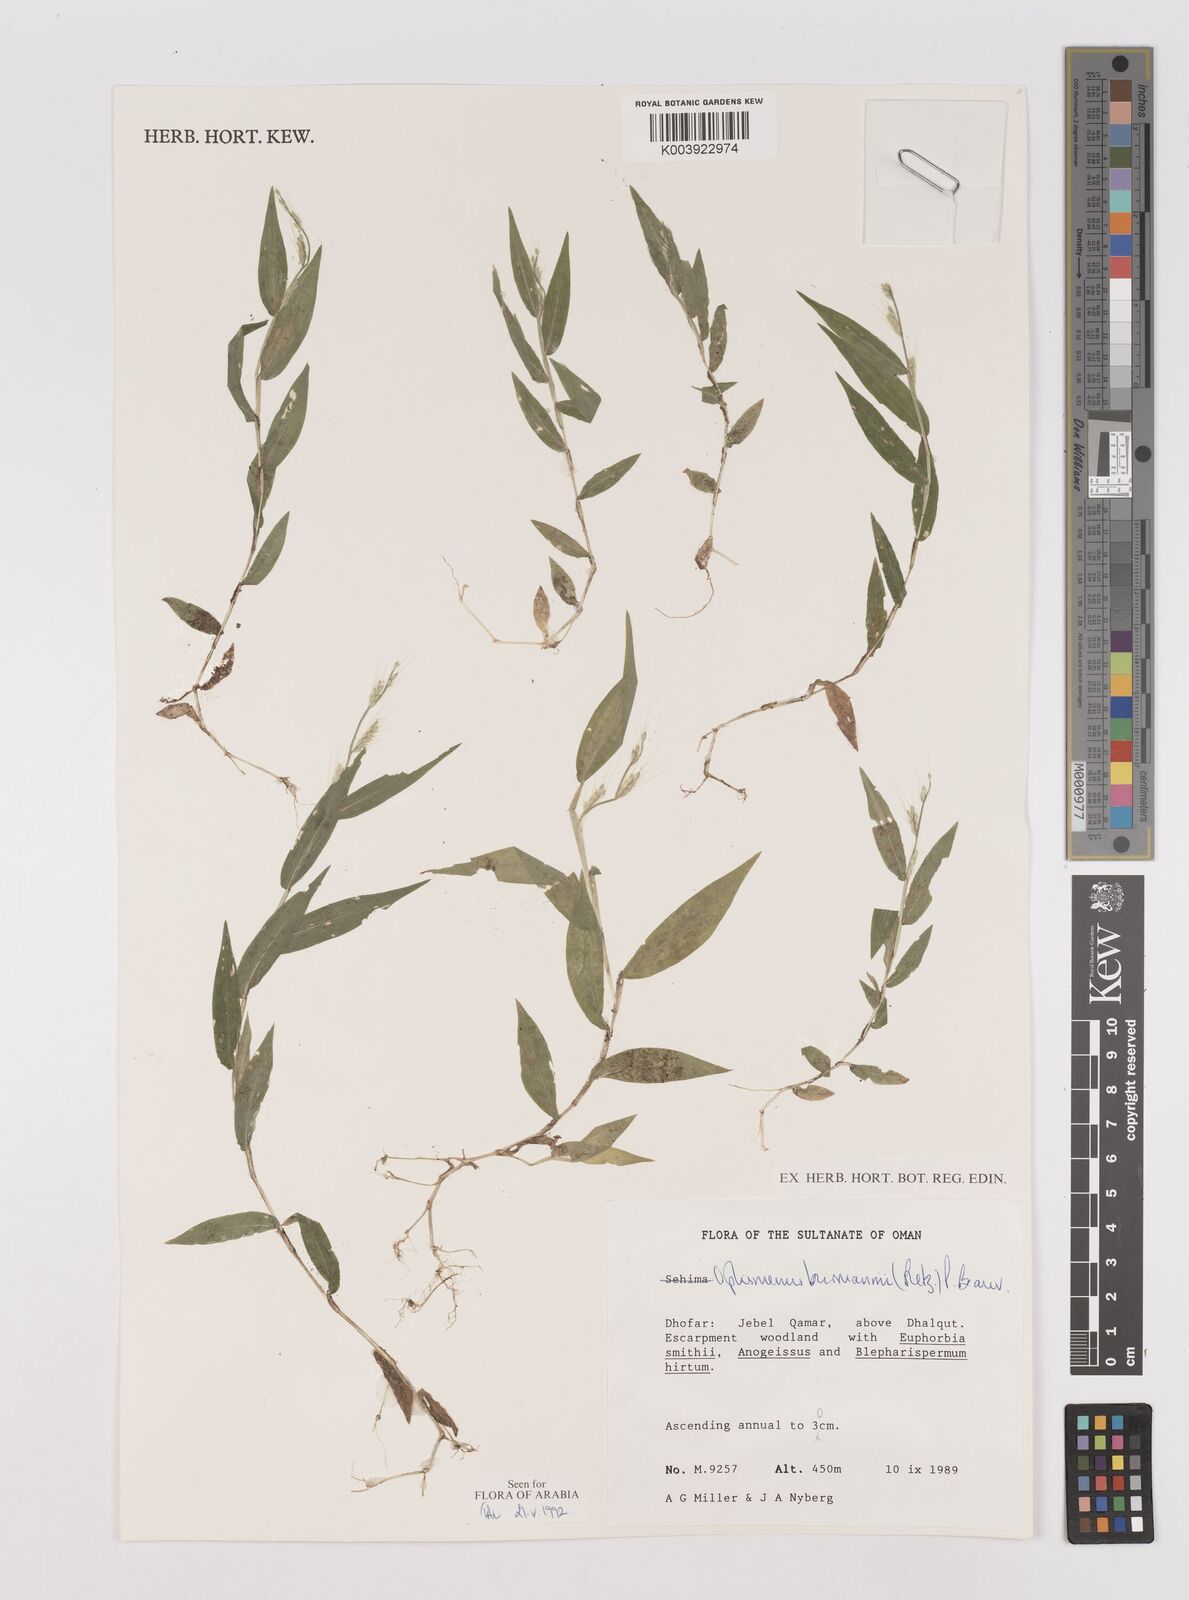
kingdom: Plantae
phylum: Tracheophyta
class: Liliopsida
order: Poales
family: Poaceae
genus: Oplismenus
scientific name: Oplismenus burmanni
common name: Burmann's basketgrass
